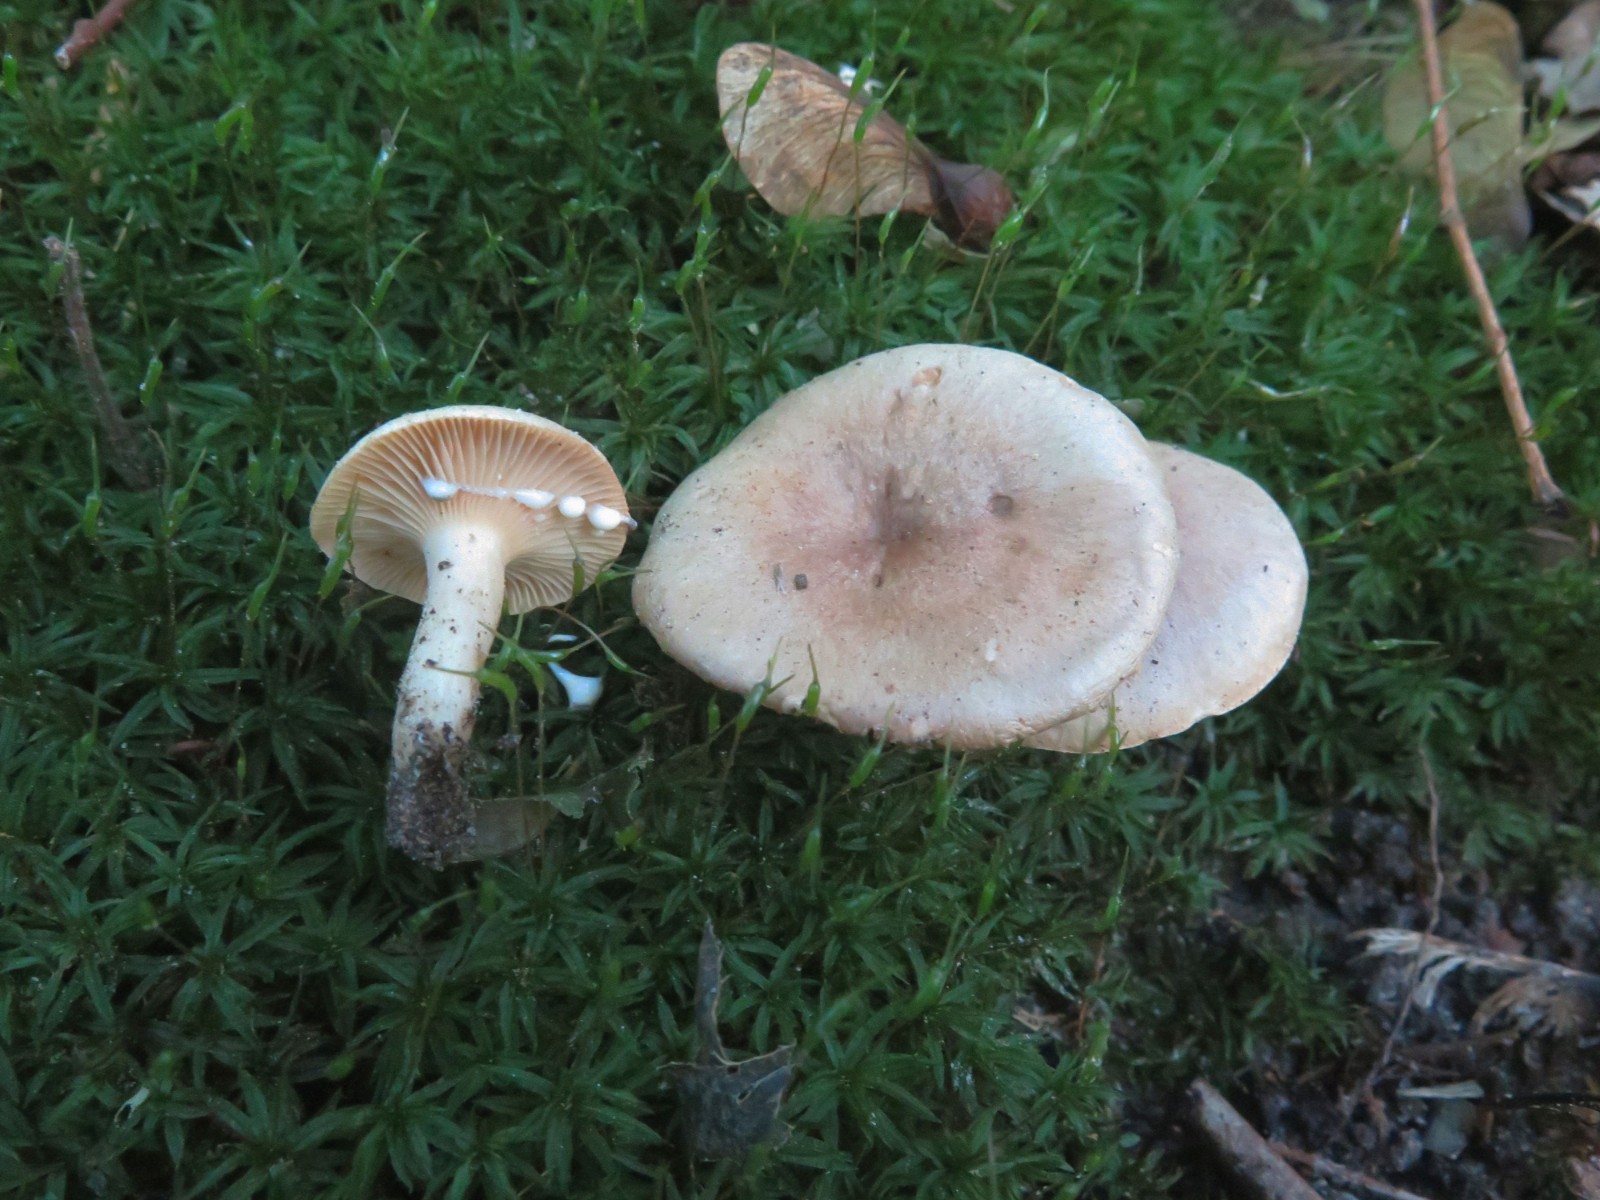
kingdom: Fungi
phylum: Basidiomycota
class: Agaricomycetes
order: Russulales
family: Russulaceae
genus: Lactarius
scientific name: Lactarius pyrogalus
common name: hassel-mælkehat
